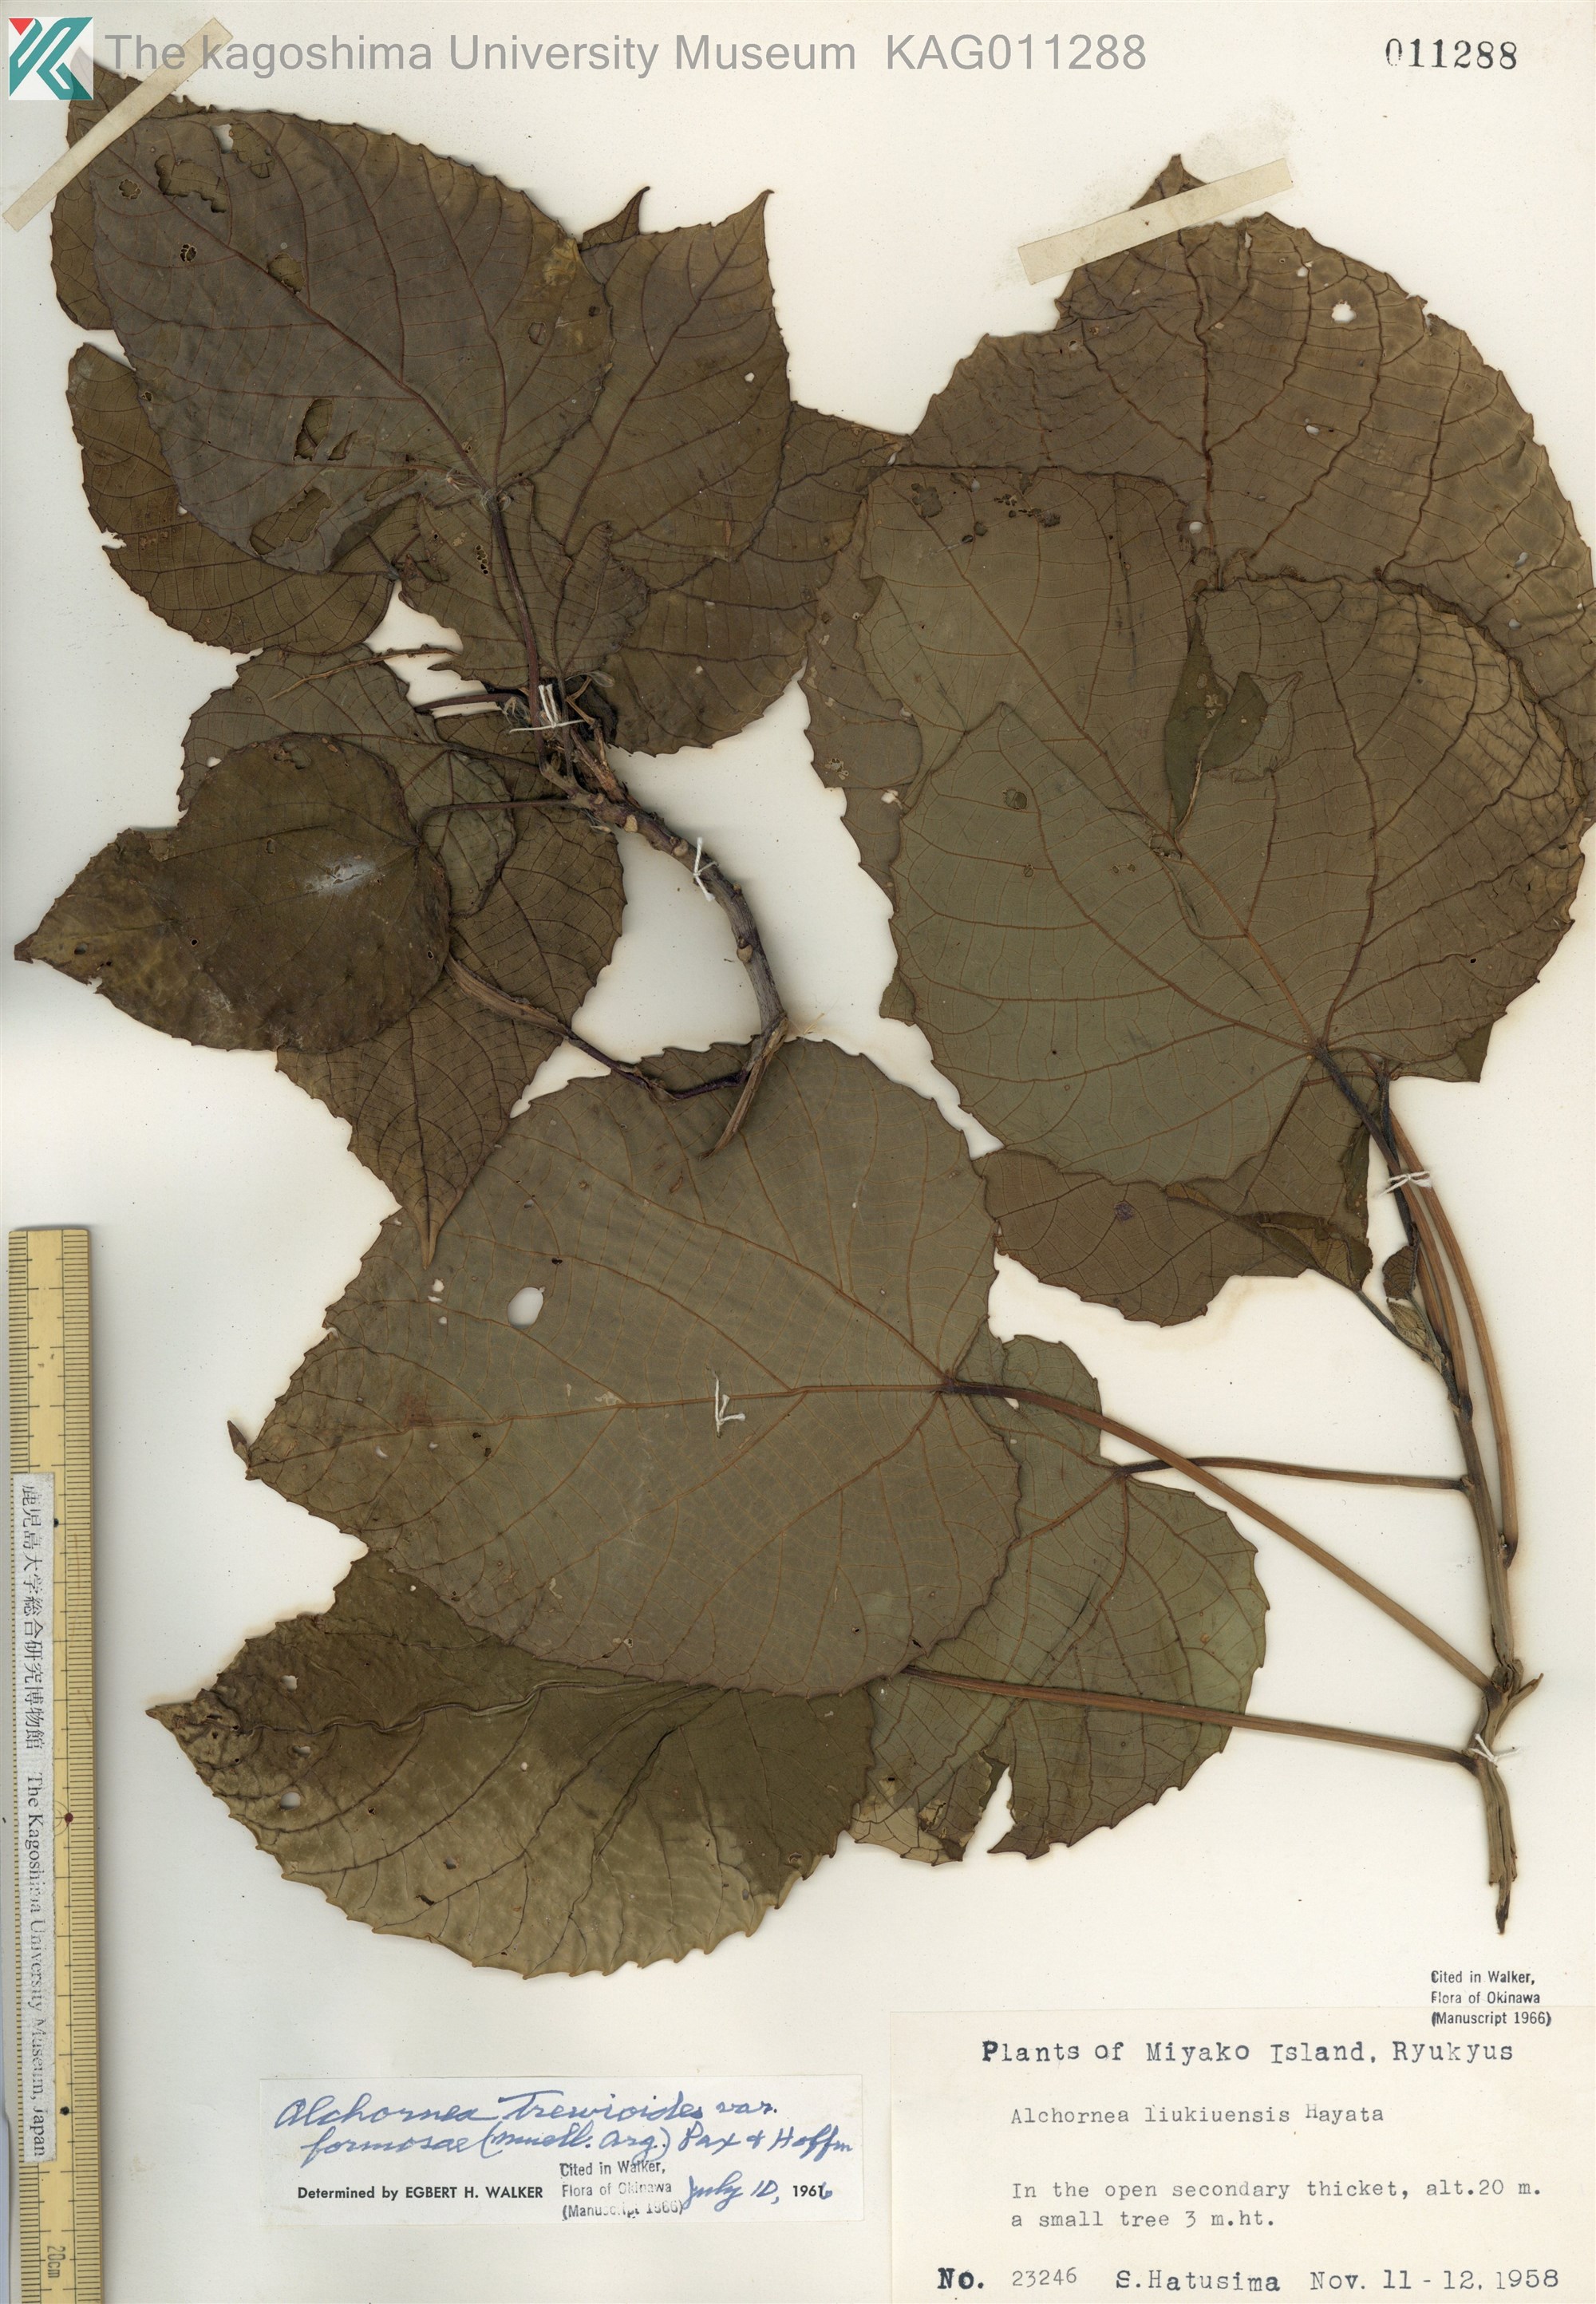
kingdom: Plantae
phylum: Tracheophyta
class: Magnoliopsida
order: Malpighiales
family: Euphorbiaceae
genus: Alchornea
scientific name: Alchornea liukiuensis
